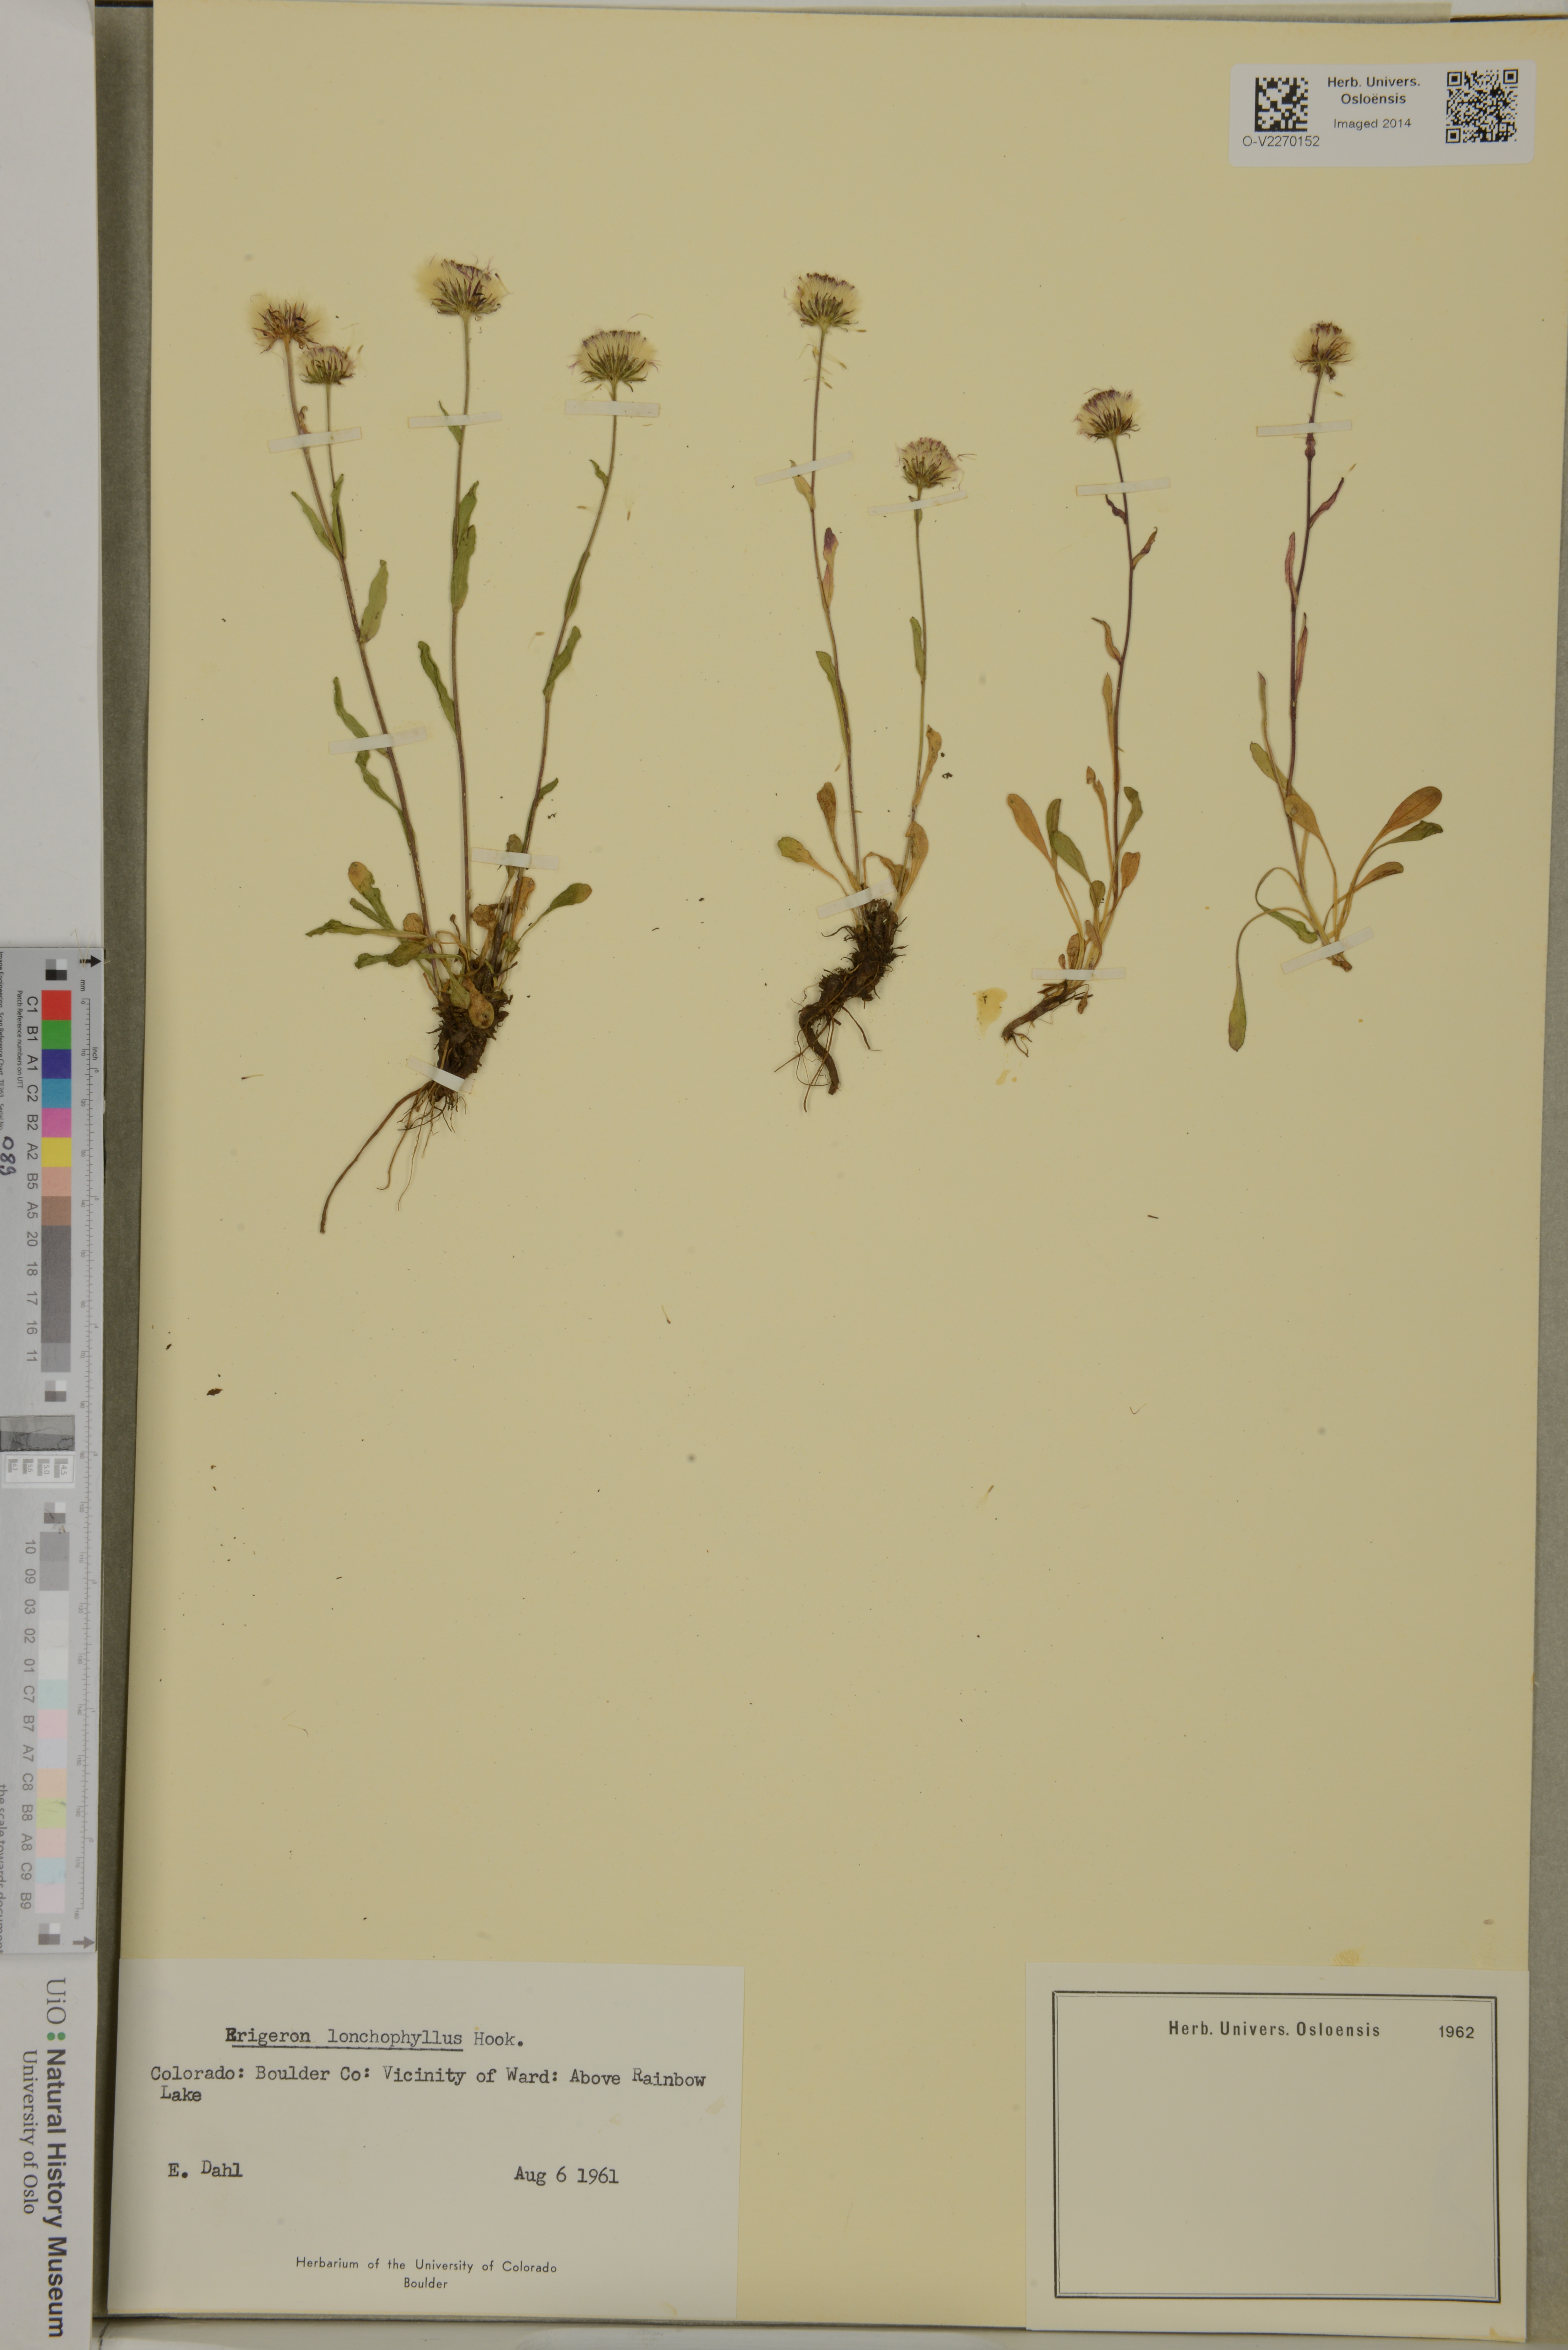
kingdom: Plantae
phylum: Tracheophyta
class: Magnoliopsida
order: Asterales
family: Asteraceae
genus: Erigeron
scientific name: Erigeron lonchophyllus
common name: Short-ray fleabane
